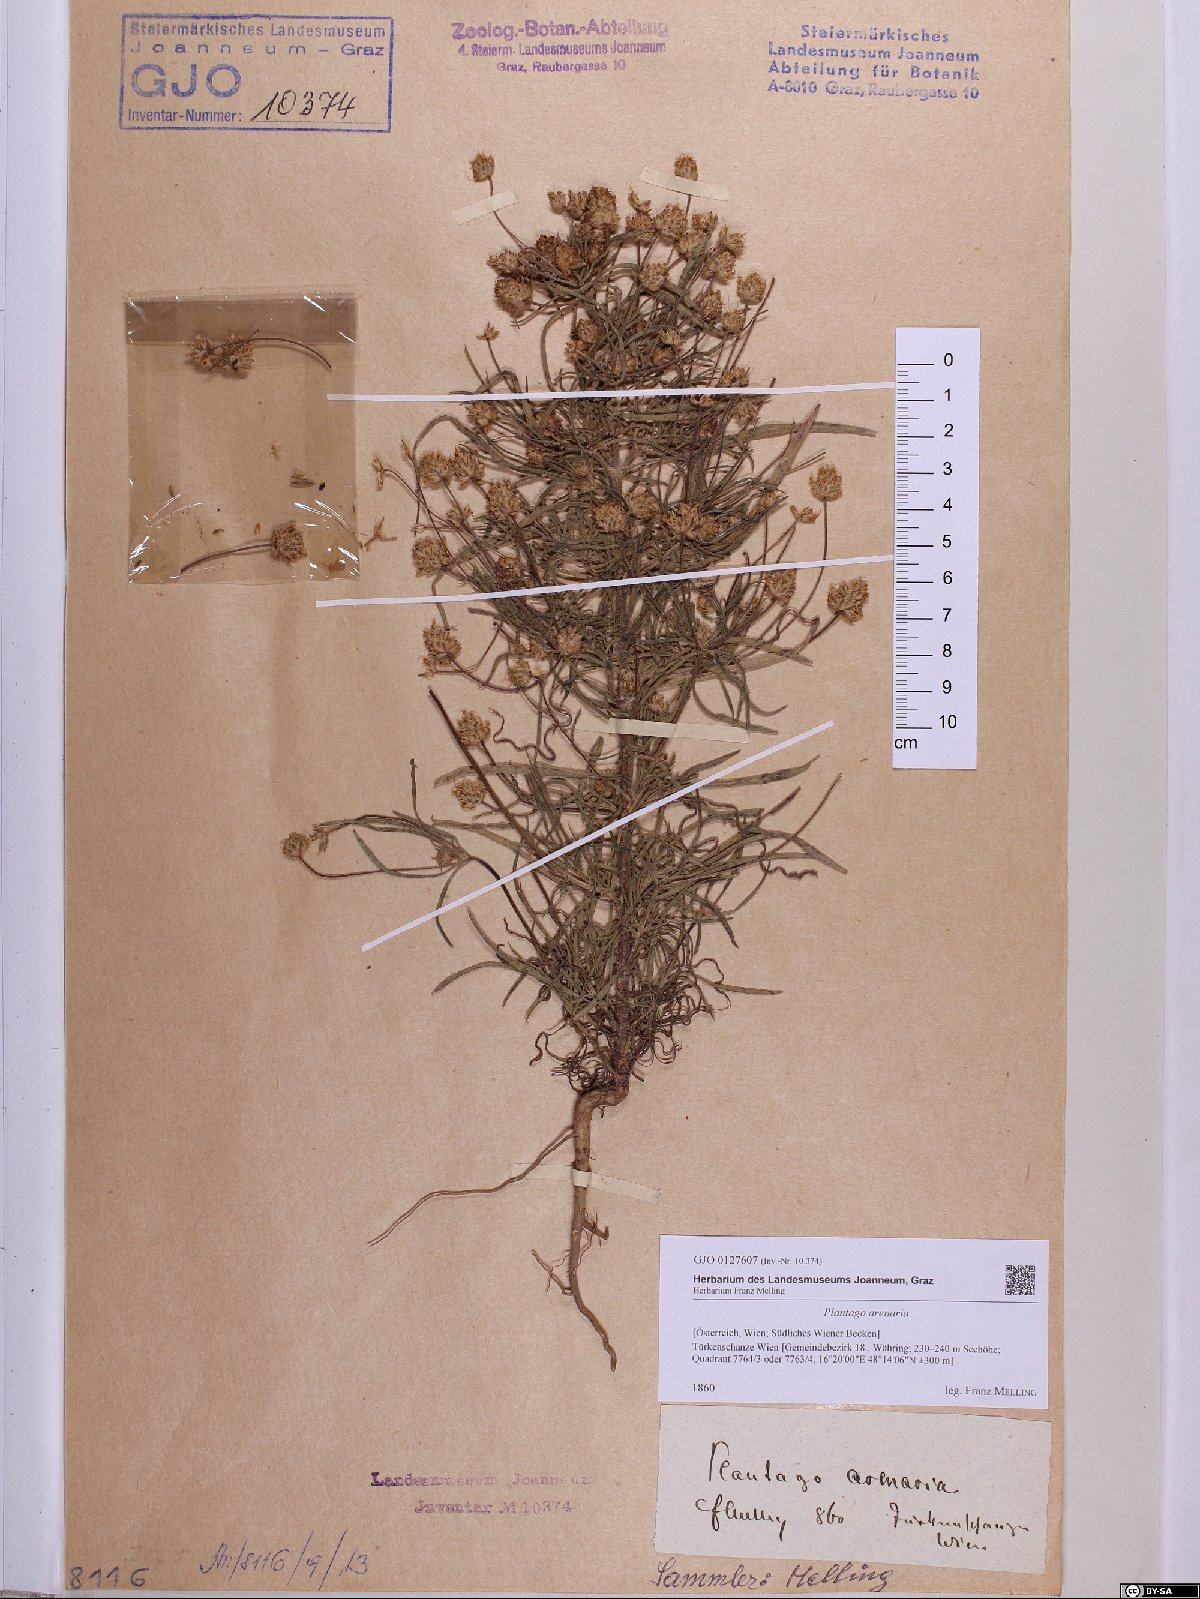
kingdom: Plantae
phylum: Tracheophyta
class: Magnoliopsida
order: Lamiales
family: Plantaginaceae
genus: Plantago
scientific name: Plantago arenaria
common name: Branched plantain
